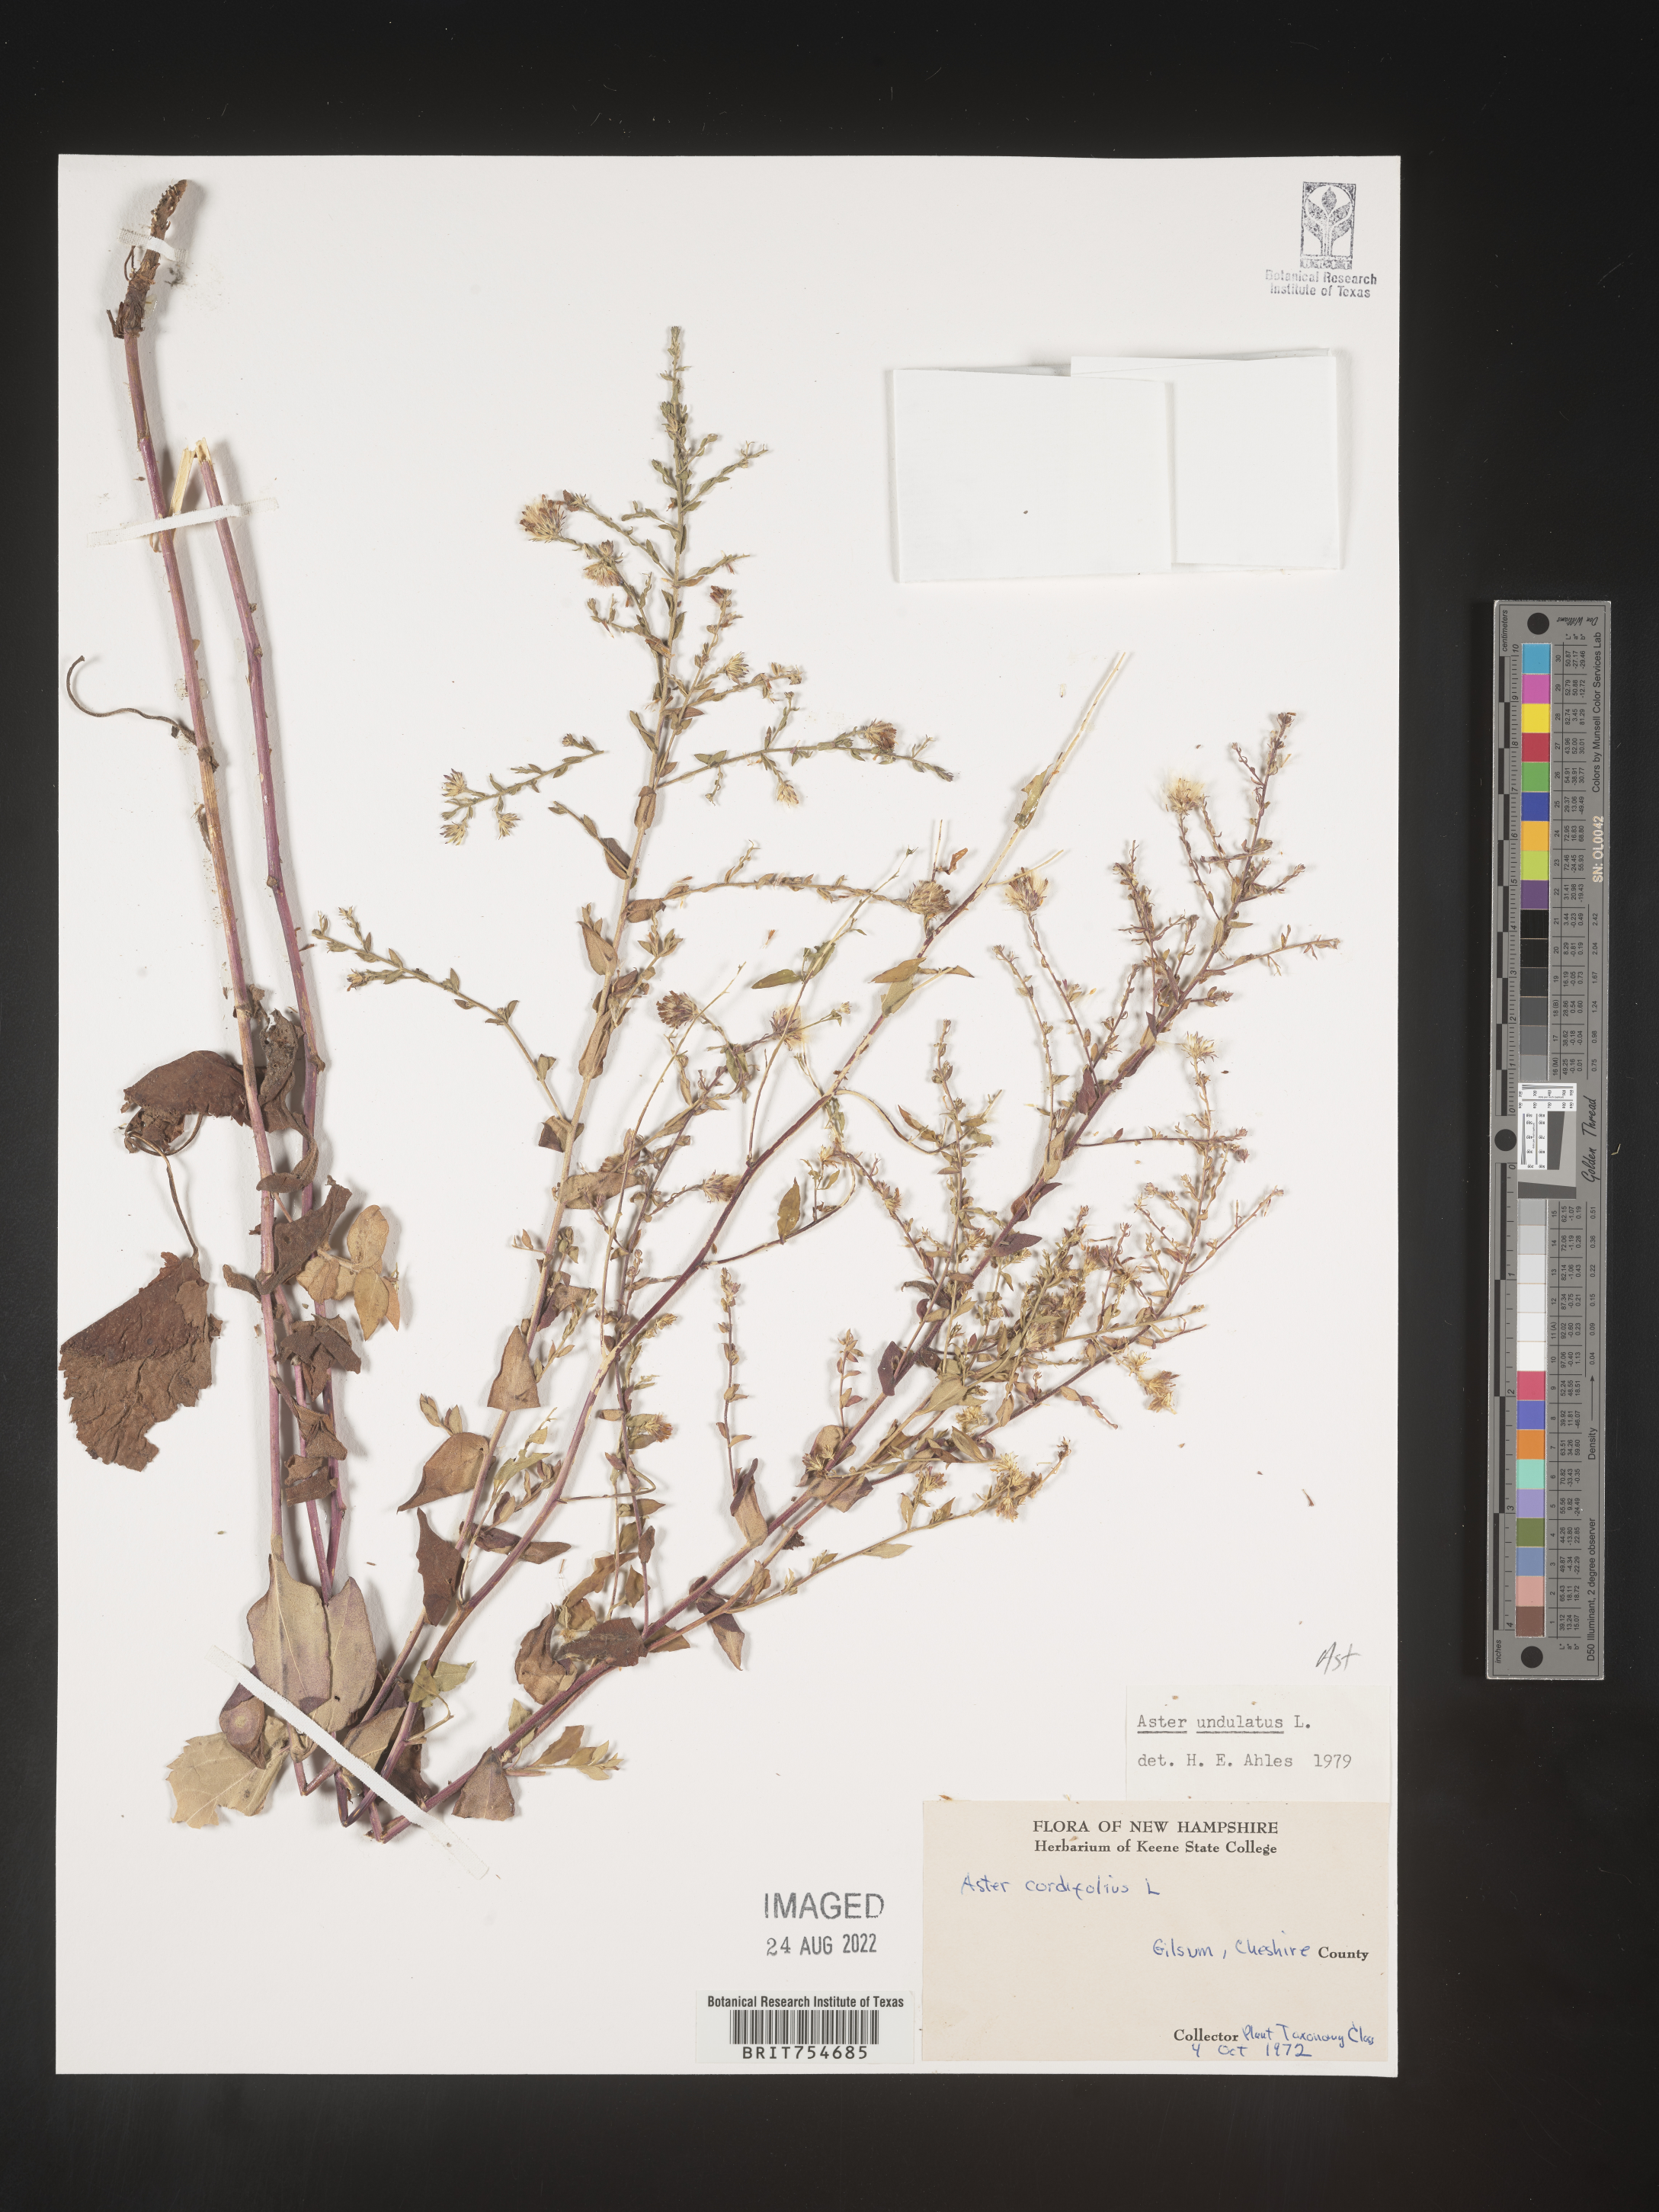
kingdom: Plantae
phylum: Tracheophyta
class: Magnoliopsida
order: Asterales
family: Asteraceae
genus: Symphyotrichum
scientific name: Symphyotrichum undulatum
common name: Clasping heart-leaf aster
